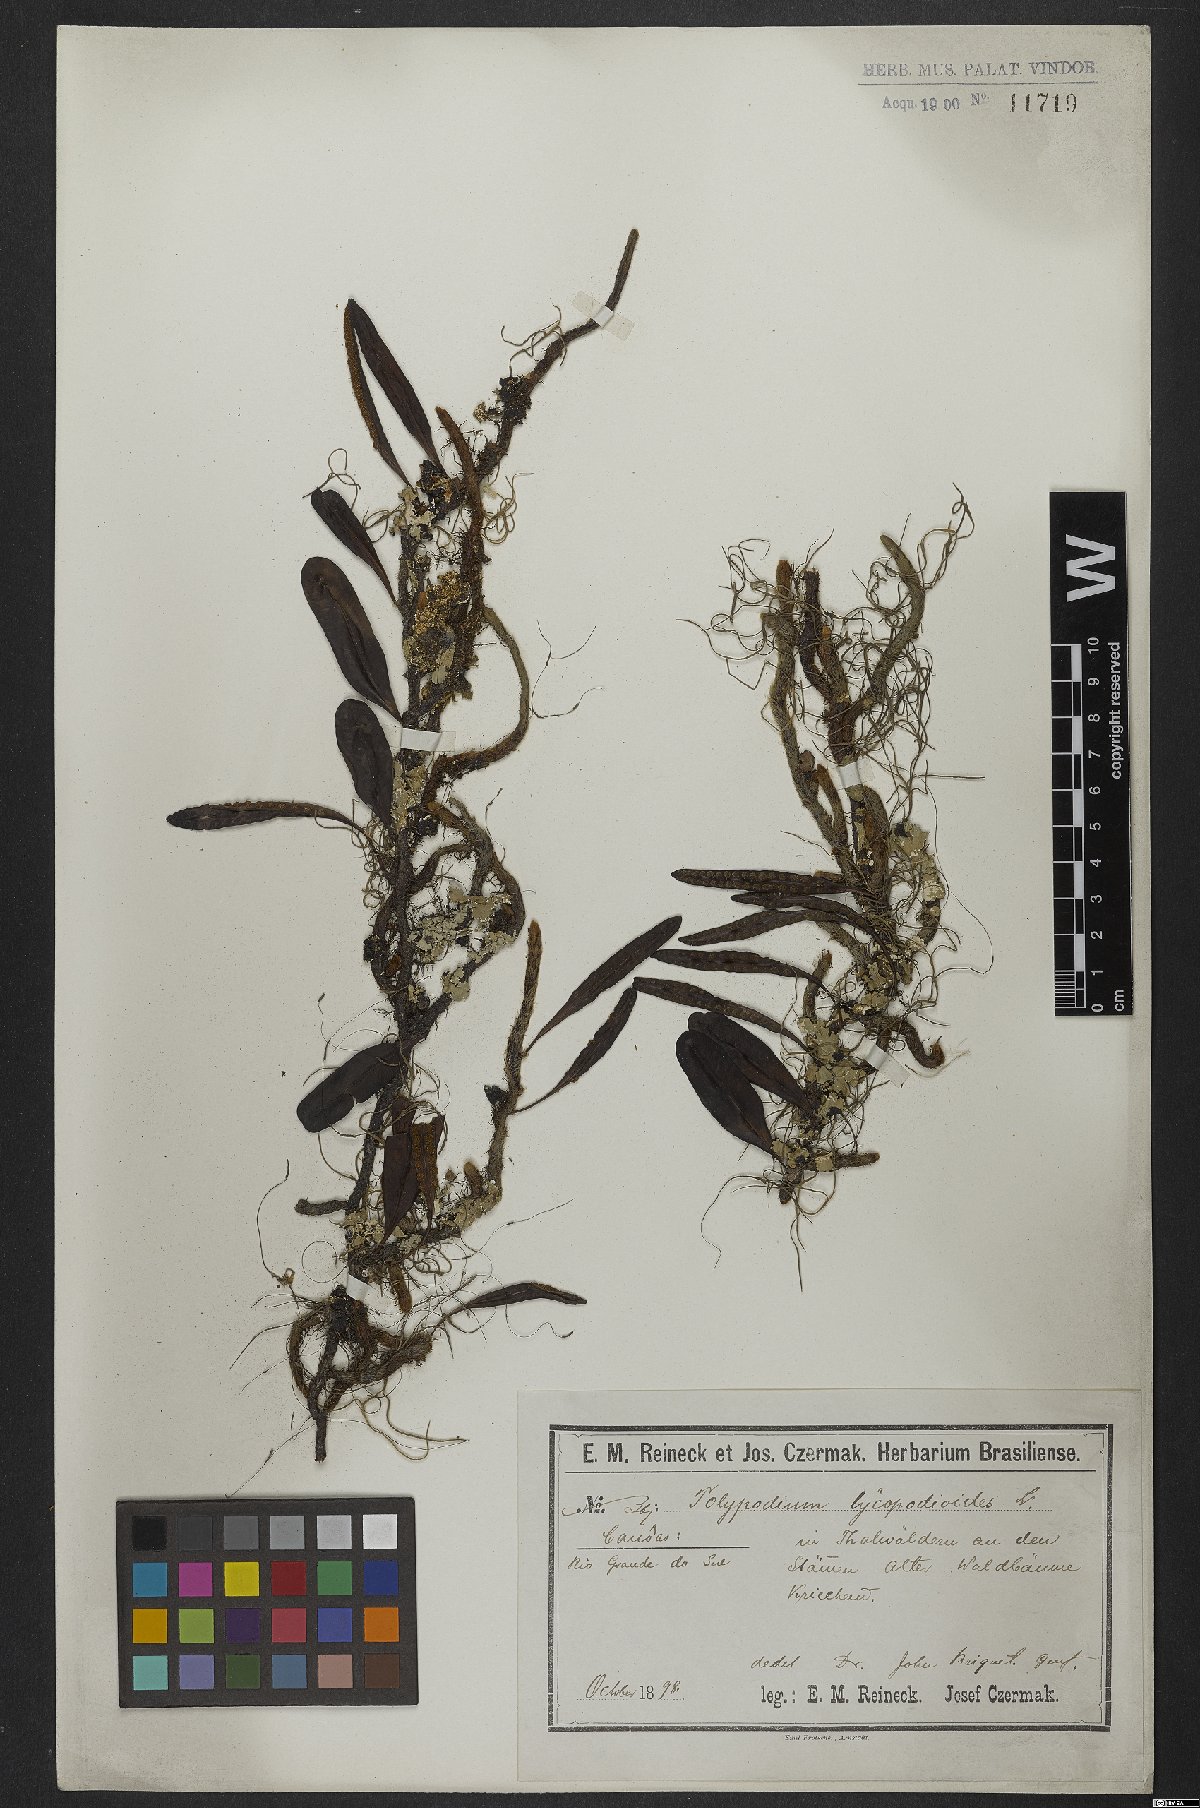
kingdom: Plantae
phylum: Tracheophyta
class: Polypodiopsida
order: Polypodiales
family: Polypodiaceae
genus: Microgramma
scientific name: Microgramma lycopodioides
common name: Bastard catclaw
